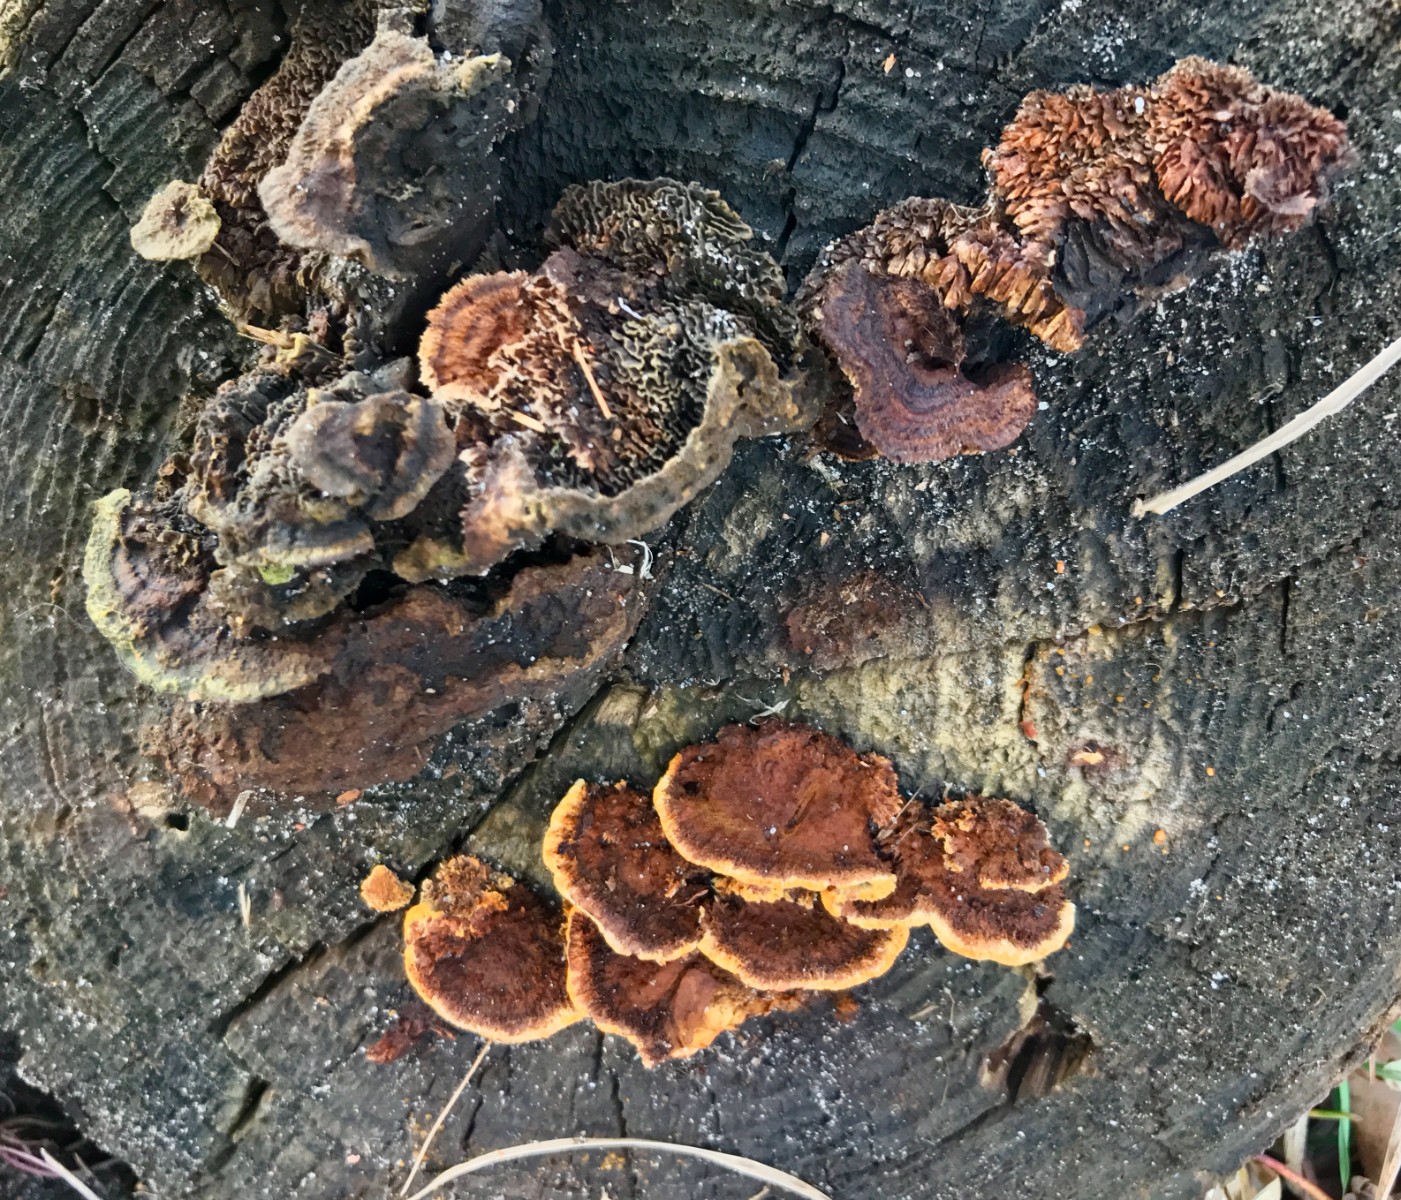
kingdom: Fungi
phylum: Basidiomycota
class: Agaricomycetes
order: Gloeophyllales
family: Gloeophyllaceae
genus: Gloeophyllum
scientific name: Gloeophyllum sepiarium
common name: fyrre-korkhat
